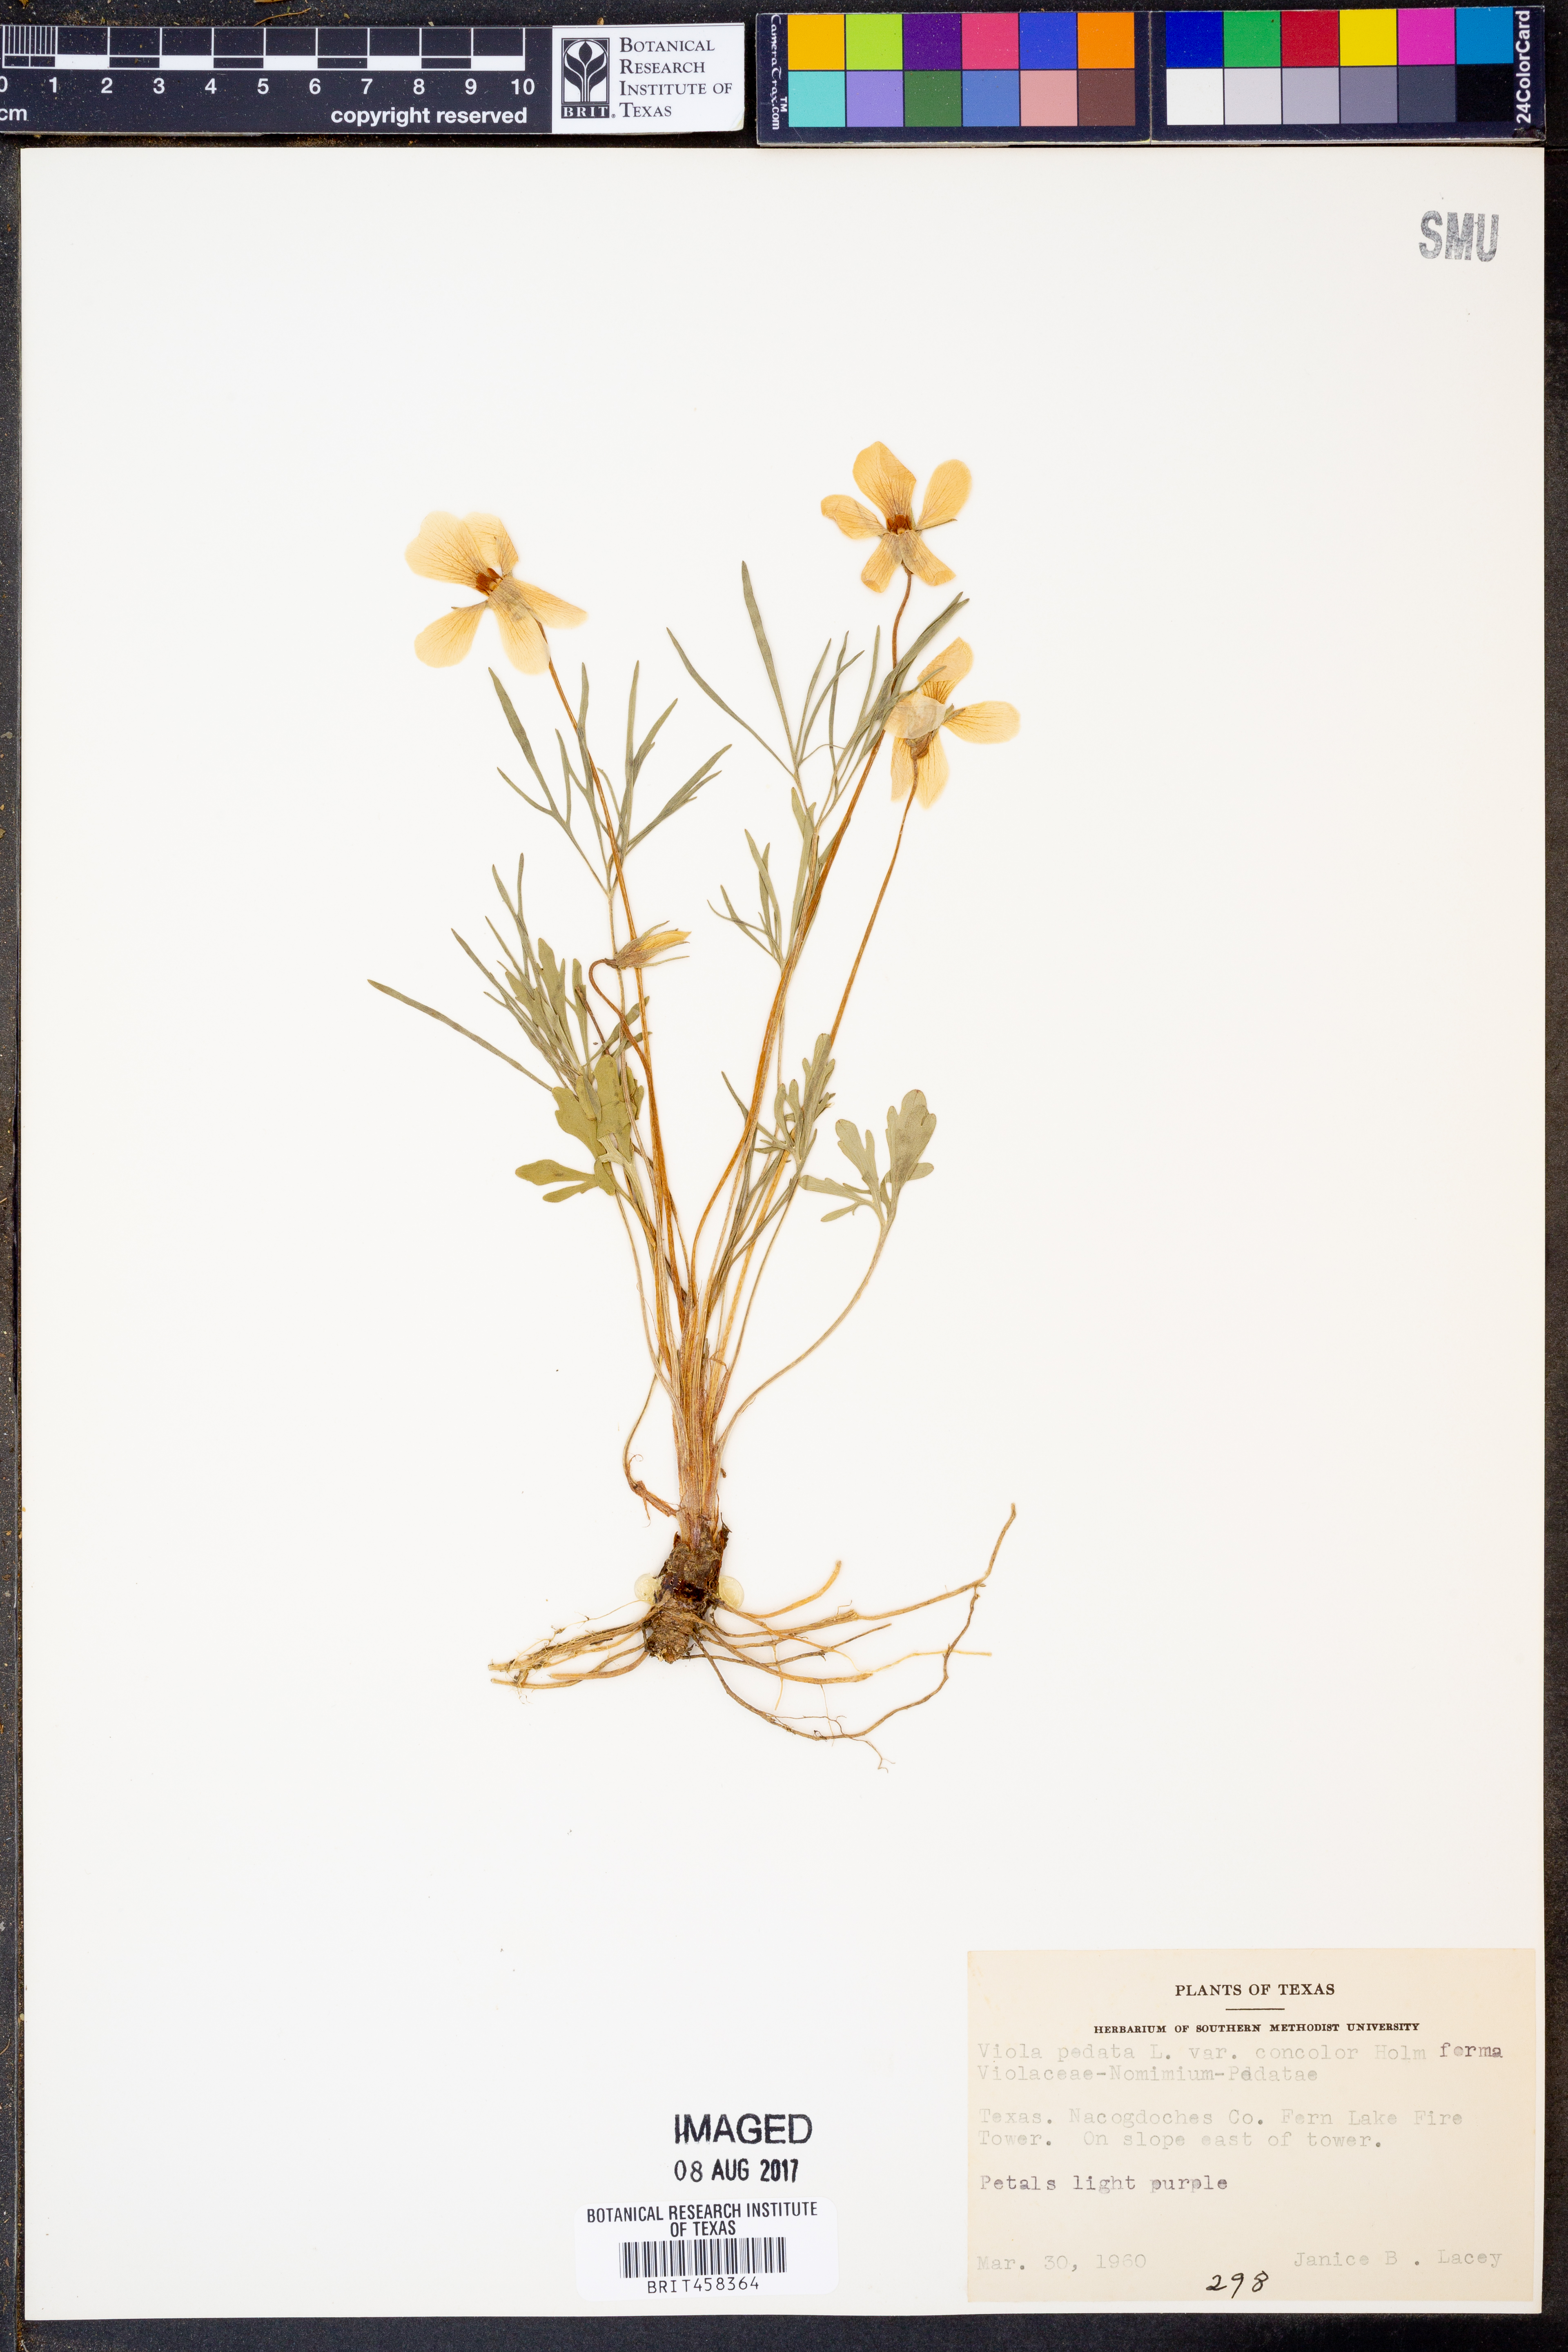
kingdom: Plantae
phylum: Tracheophyta
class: Magnoliopsida
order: Malpighiales
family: Violaceae
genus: Viola
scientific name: Viola pedata
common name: Pansy violet
